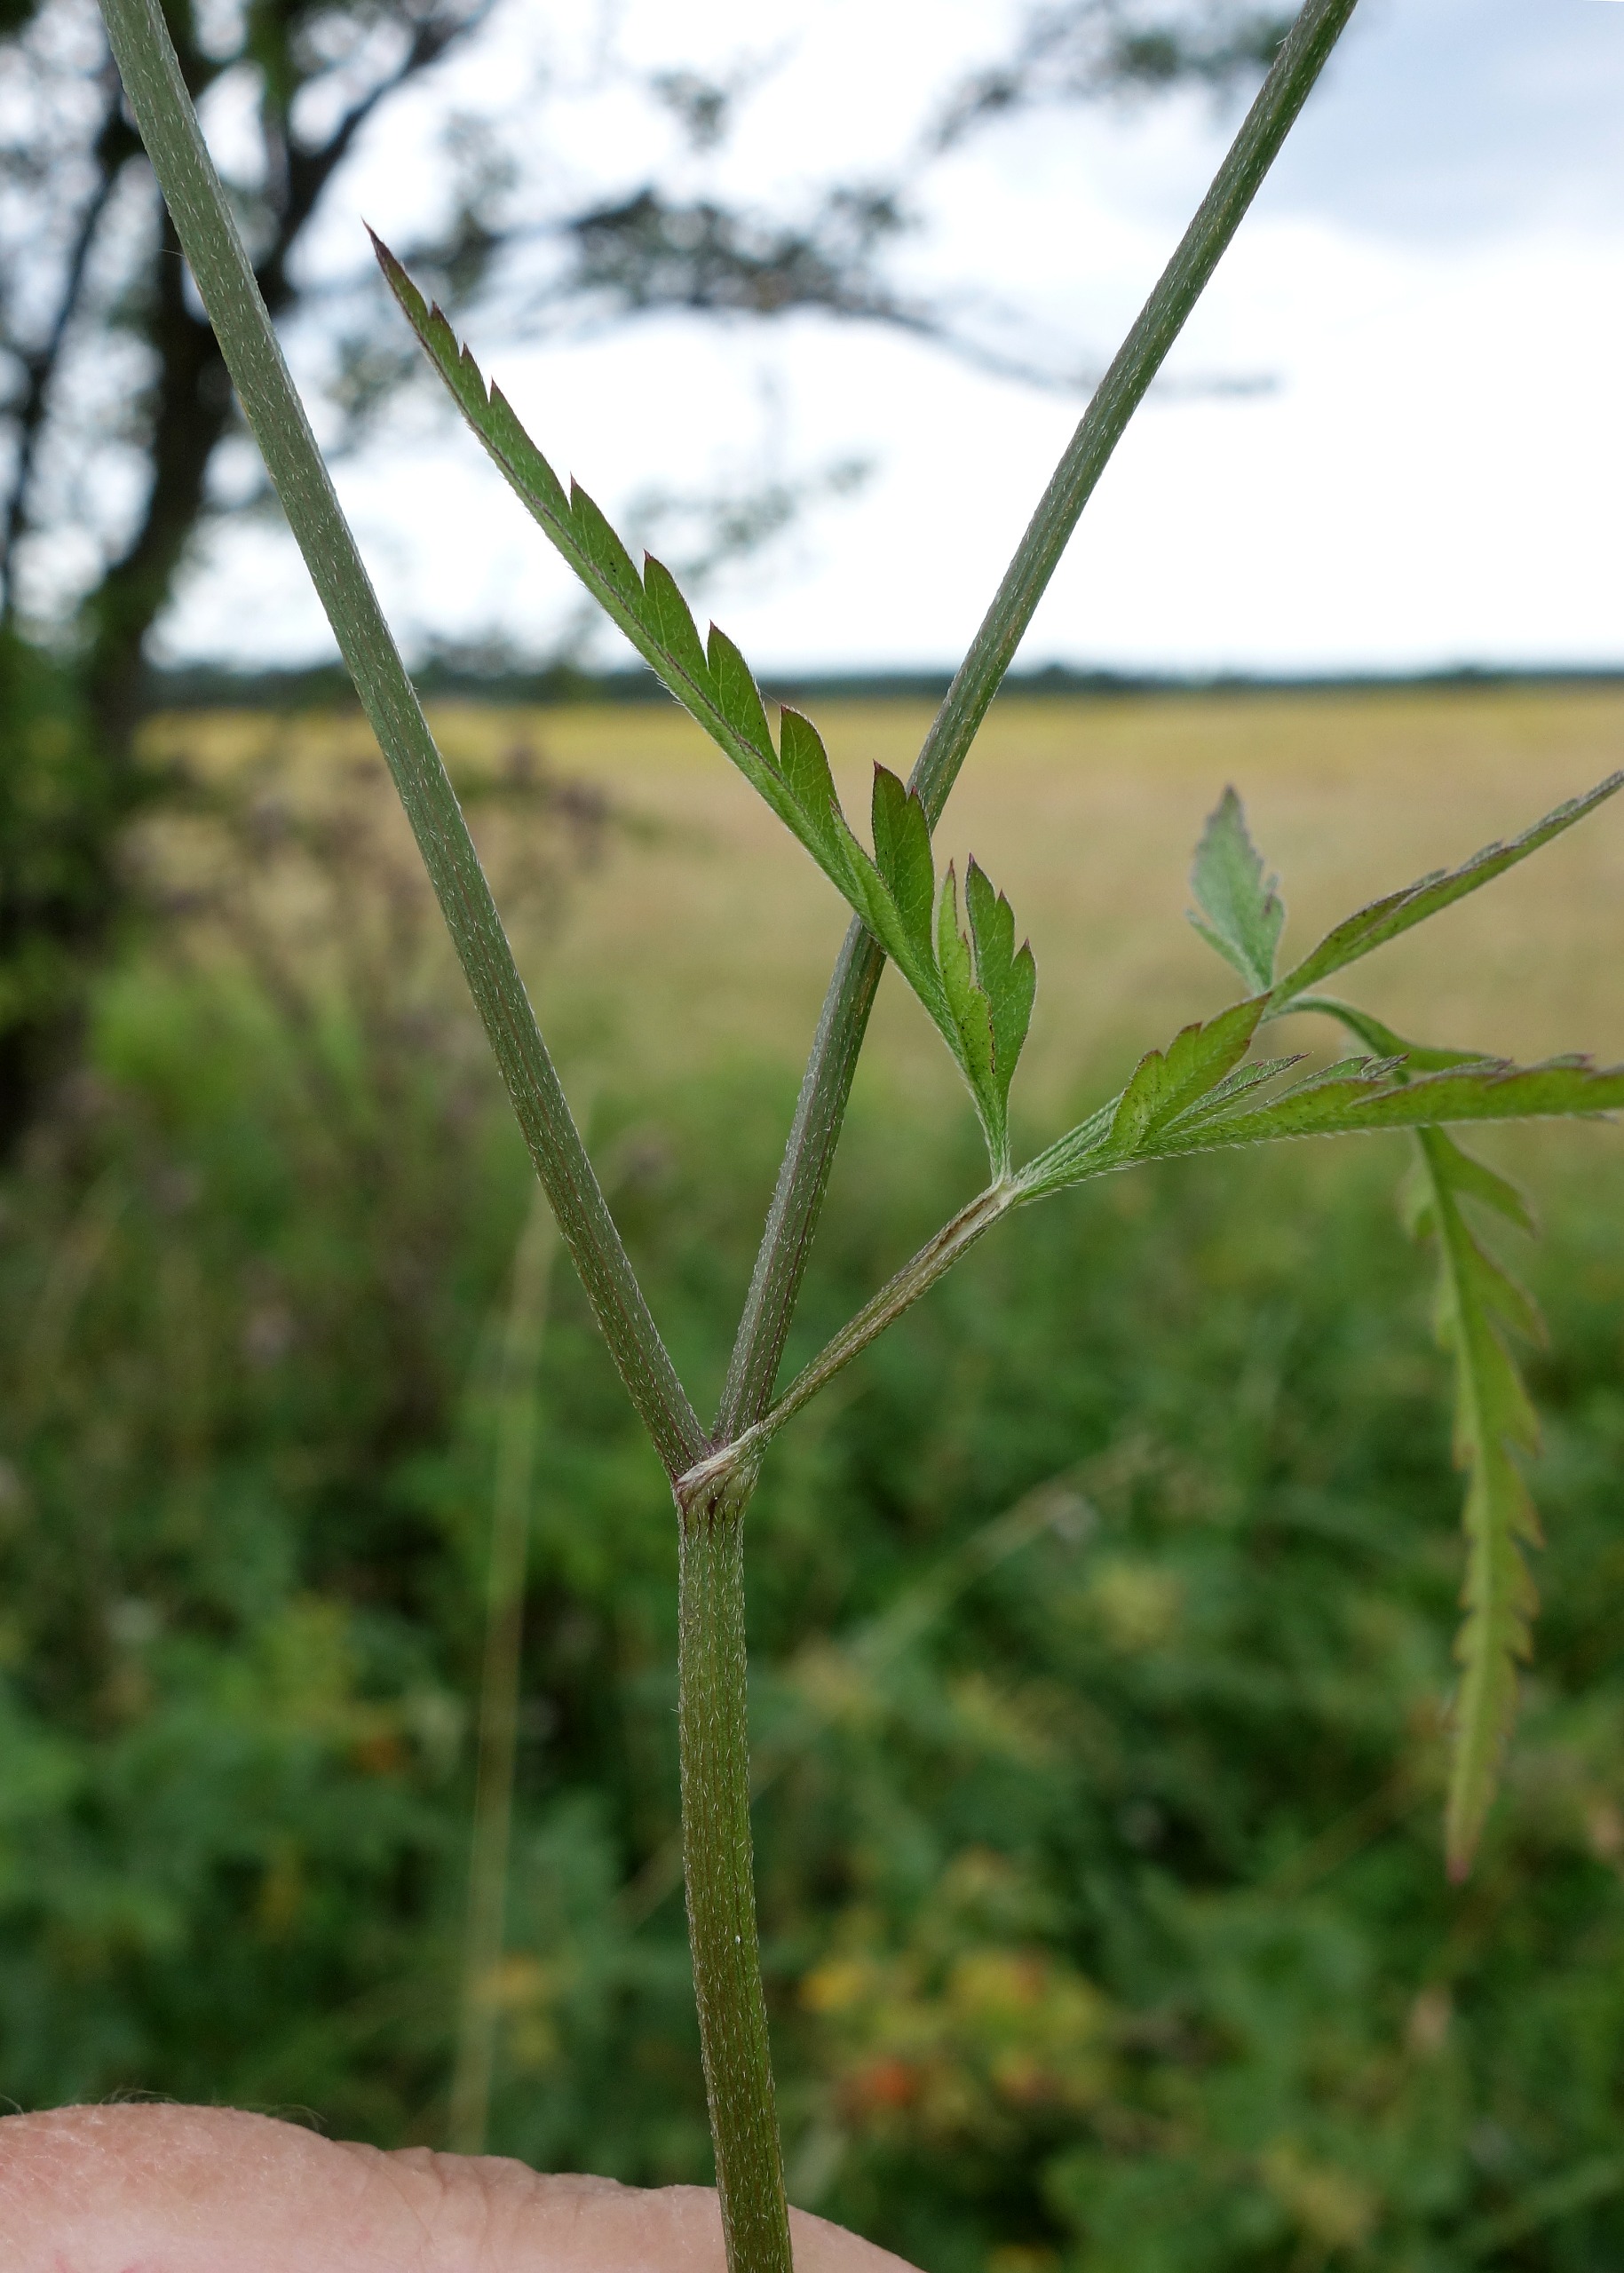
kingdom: Plantae
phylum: Tracheophyta
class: Magnoliopsida
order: Apiales
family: Apiaceae
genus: Torilis
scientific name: Torilis japonica
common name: Hvas randfrø
